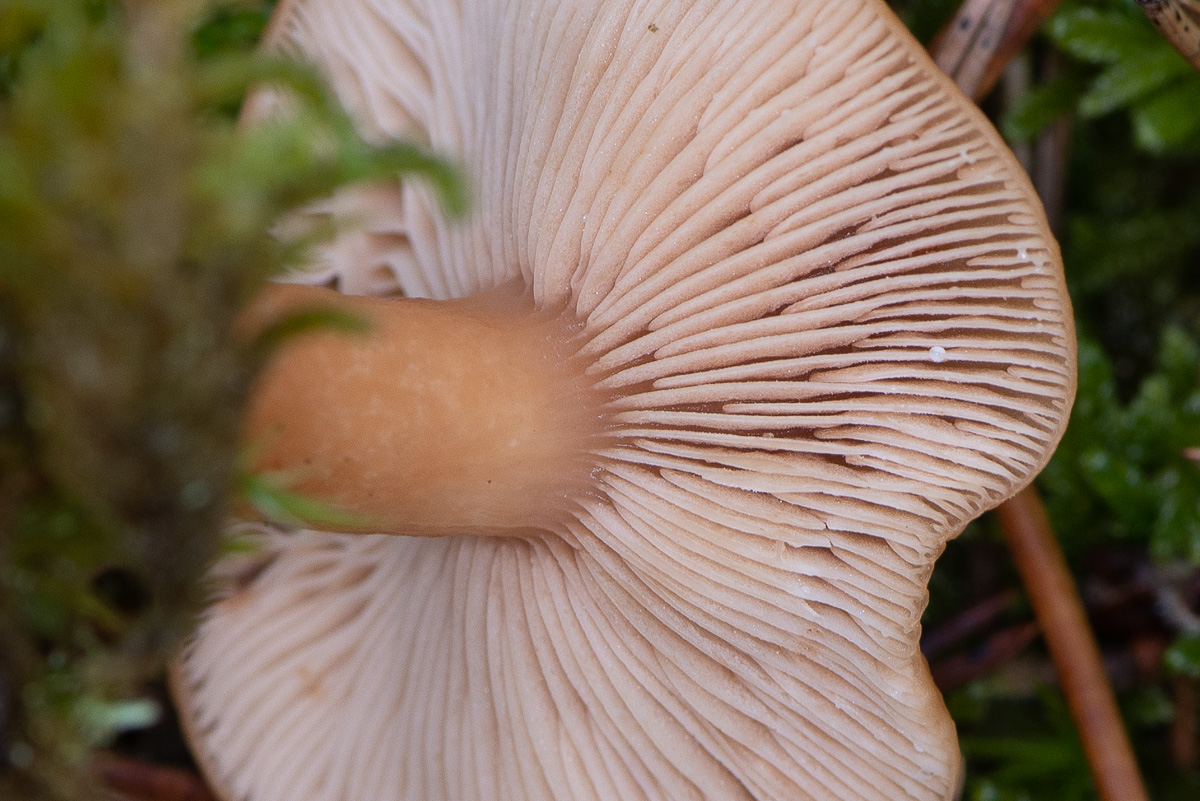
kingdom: Fungi
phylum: Basidiomycota
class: Agaricomycetes
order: Russulales
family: Russulaceae
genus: Lactarius
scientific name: Lactarius tabidus
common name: rynket mælkehat
